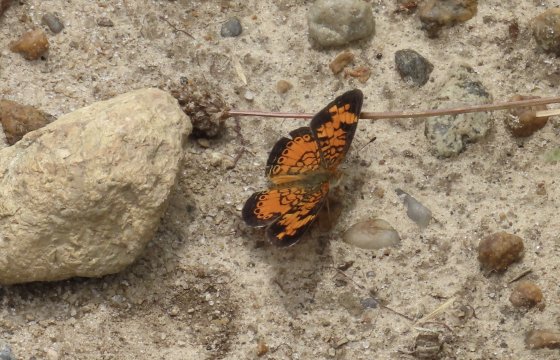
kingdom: Animalia
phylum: Arthropoda
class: Insecta
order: Lepidoptera
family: Nymphalidae
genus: Phyciodes
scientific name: Phyciodes tharos
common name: Pearl Crescent
